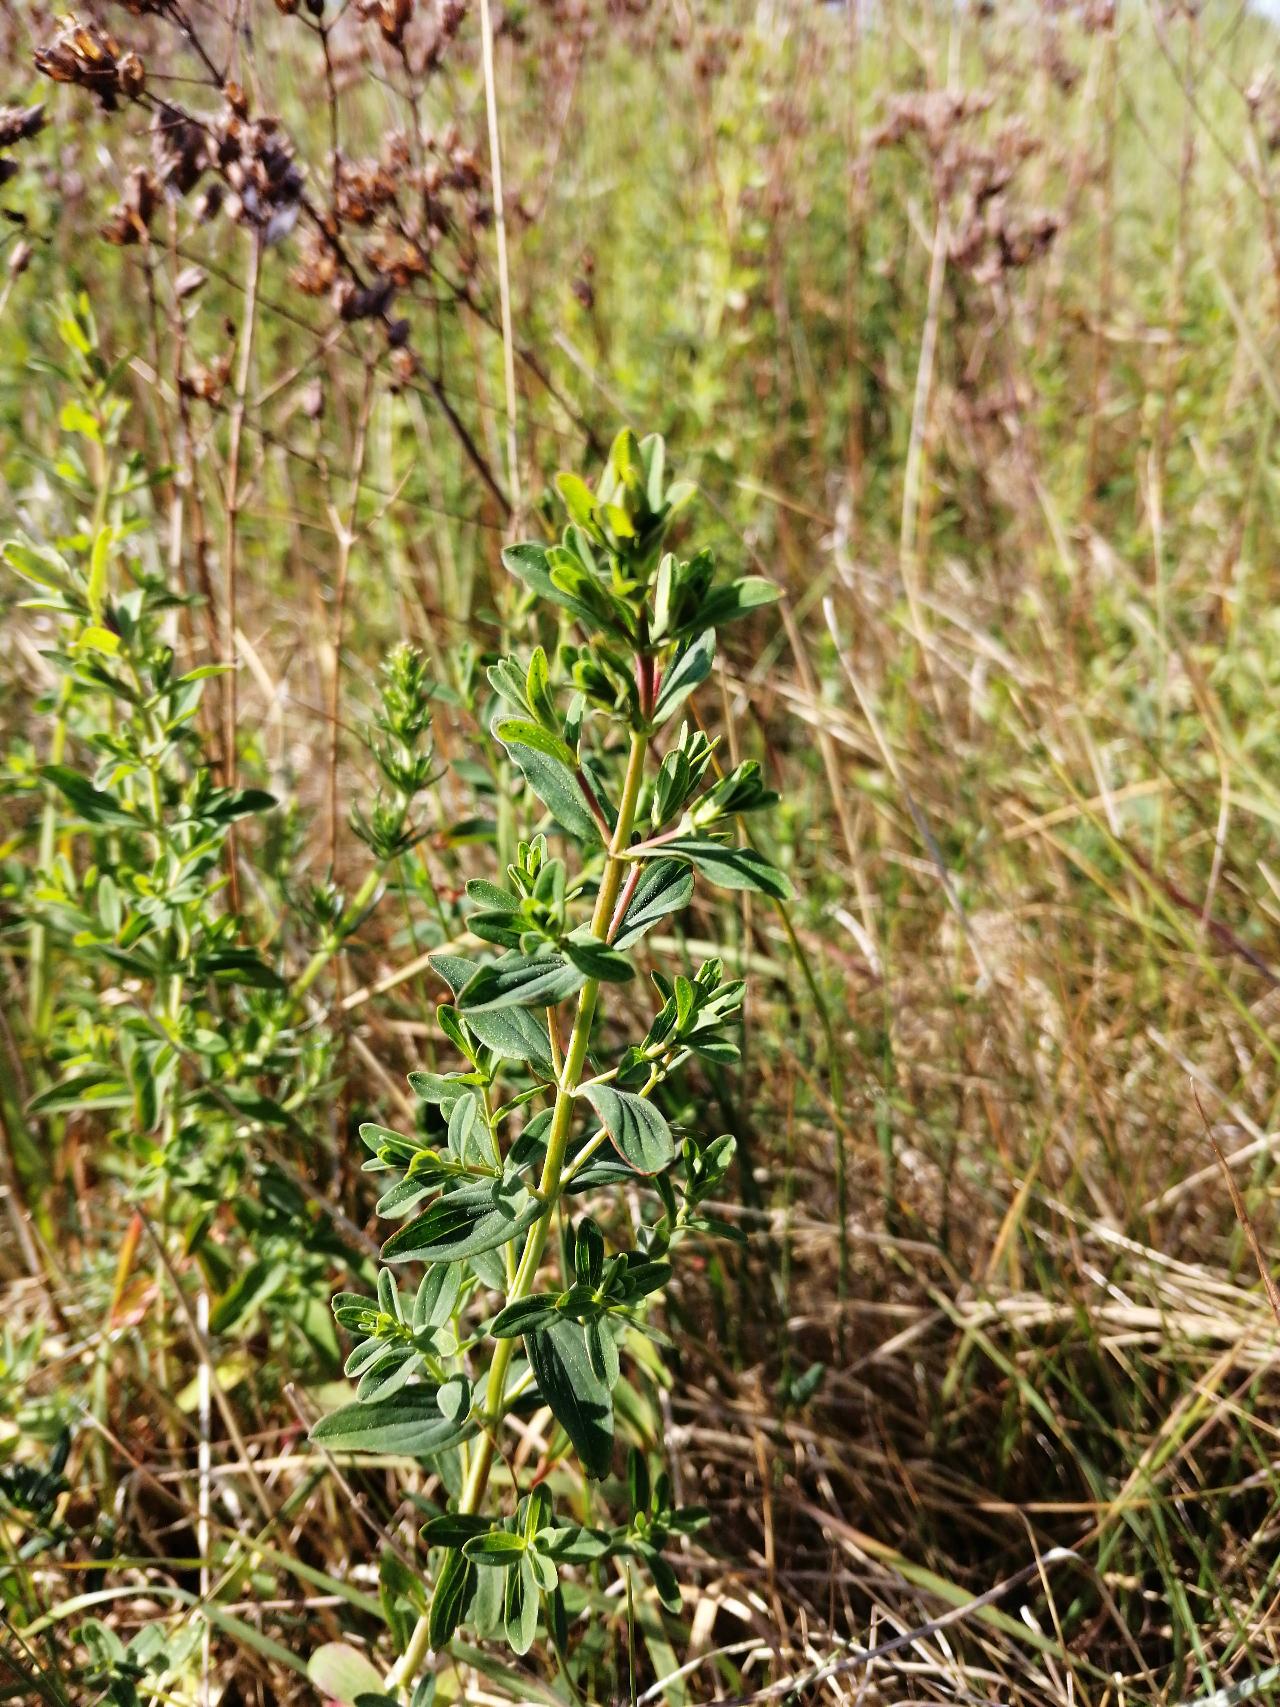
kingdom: Plantae
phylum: Tracheophyta
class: Magnoliopsida
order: Malpighiales
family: Hypericaceae
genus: Hypericum
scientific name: Hypericum perforatum
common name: Prikbladet perikon
